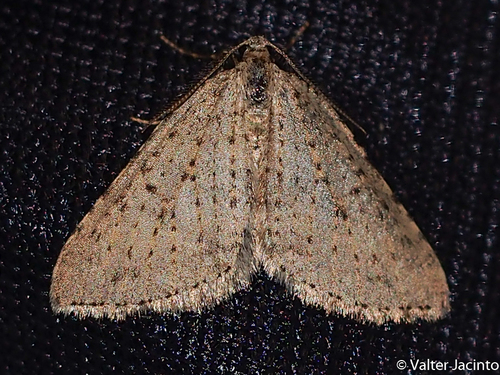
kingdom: Animalia
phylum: Arthropoda
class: Insecta
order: Lepidoptera
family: Geometridae
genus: Colostygia
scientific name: Colostygia multistrigaria
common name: Mottled grey
